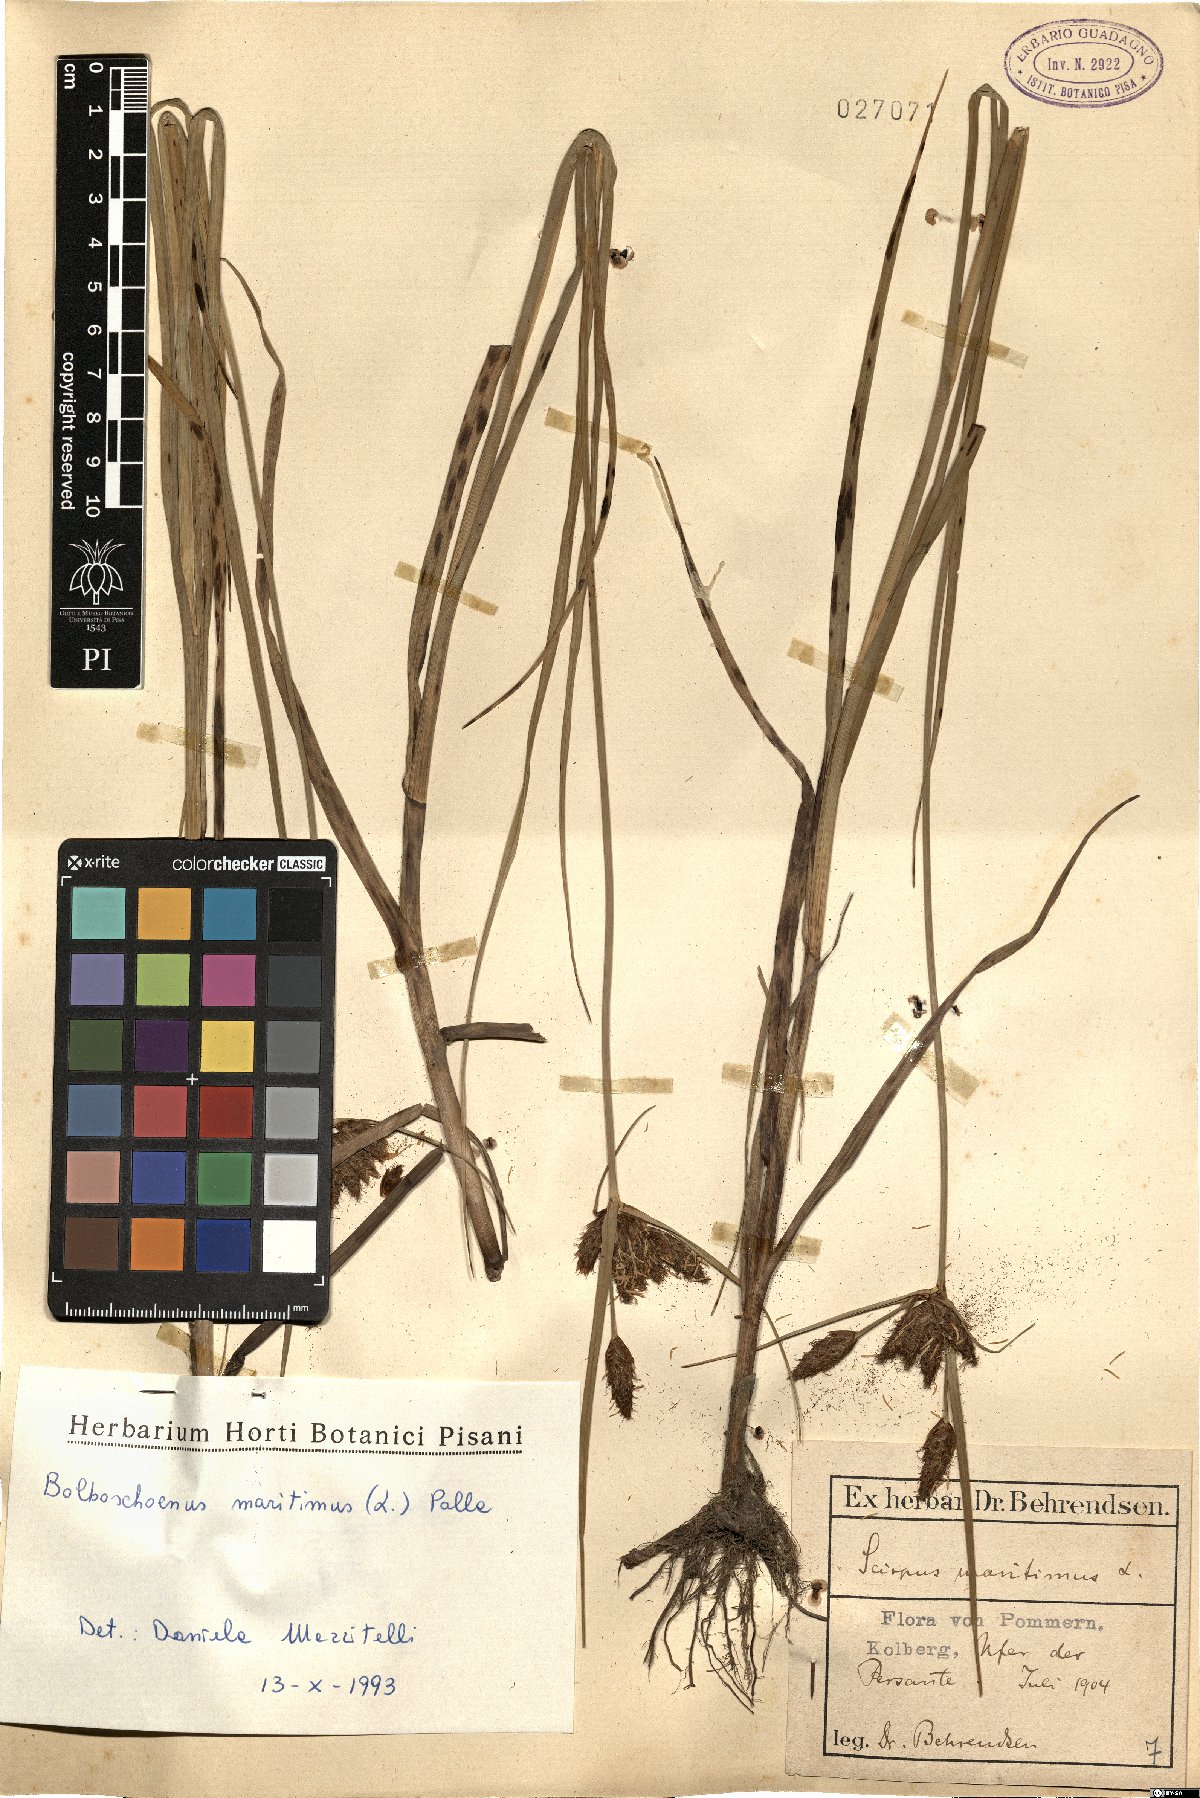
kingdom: Plantae
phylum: Tracheophyta
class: Liliopsida
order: Poales
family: Cyperaceae
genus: Bolboschoenus
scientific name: Bolboschoenus maritimus
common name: Sea club-rush
